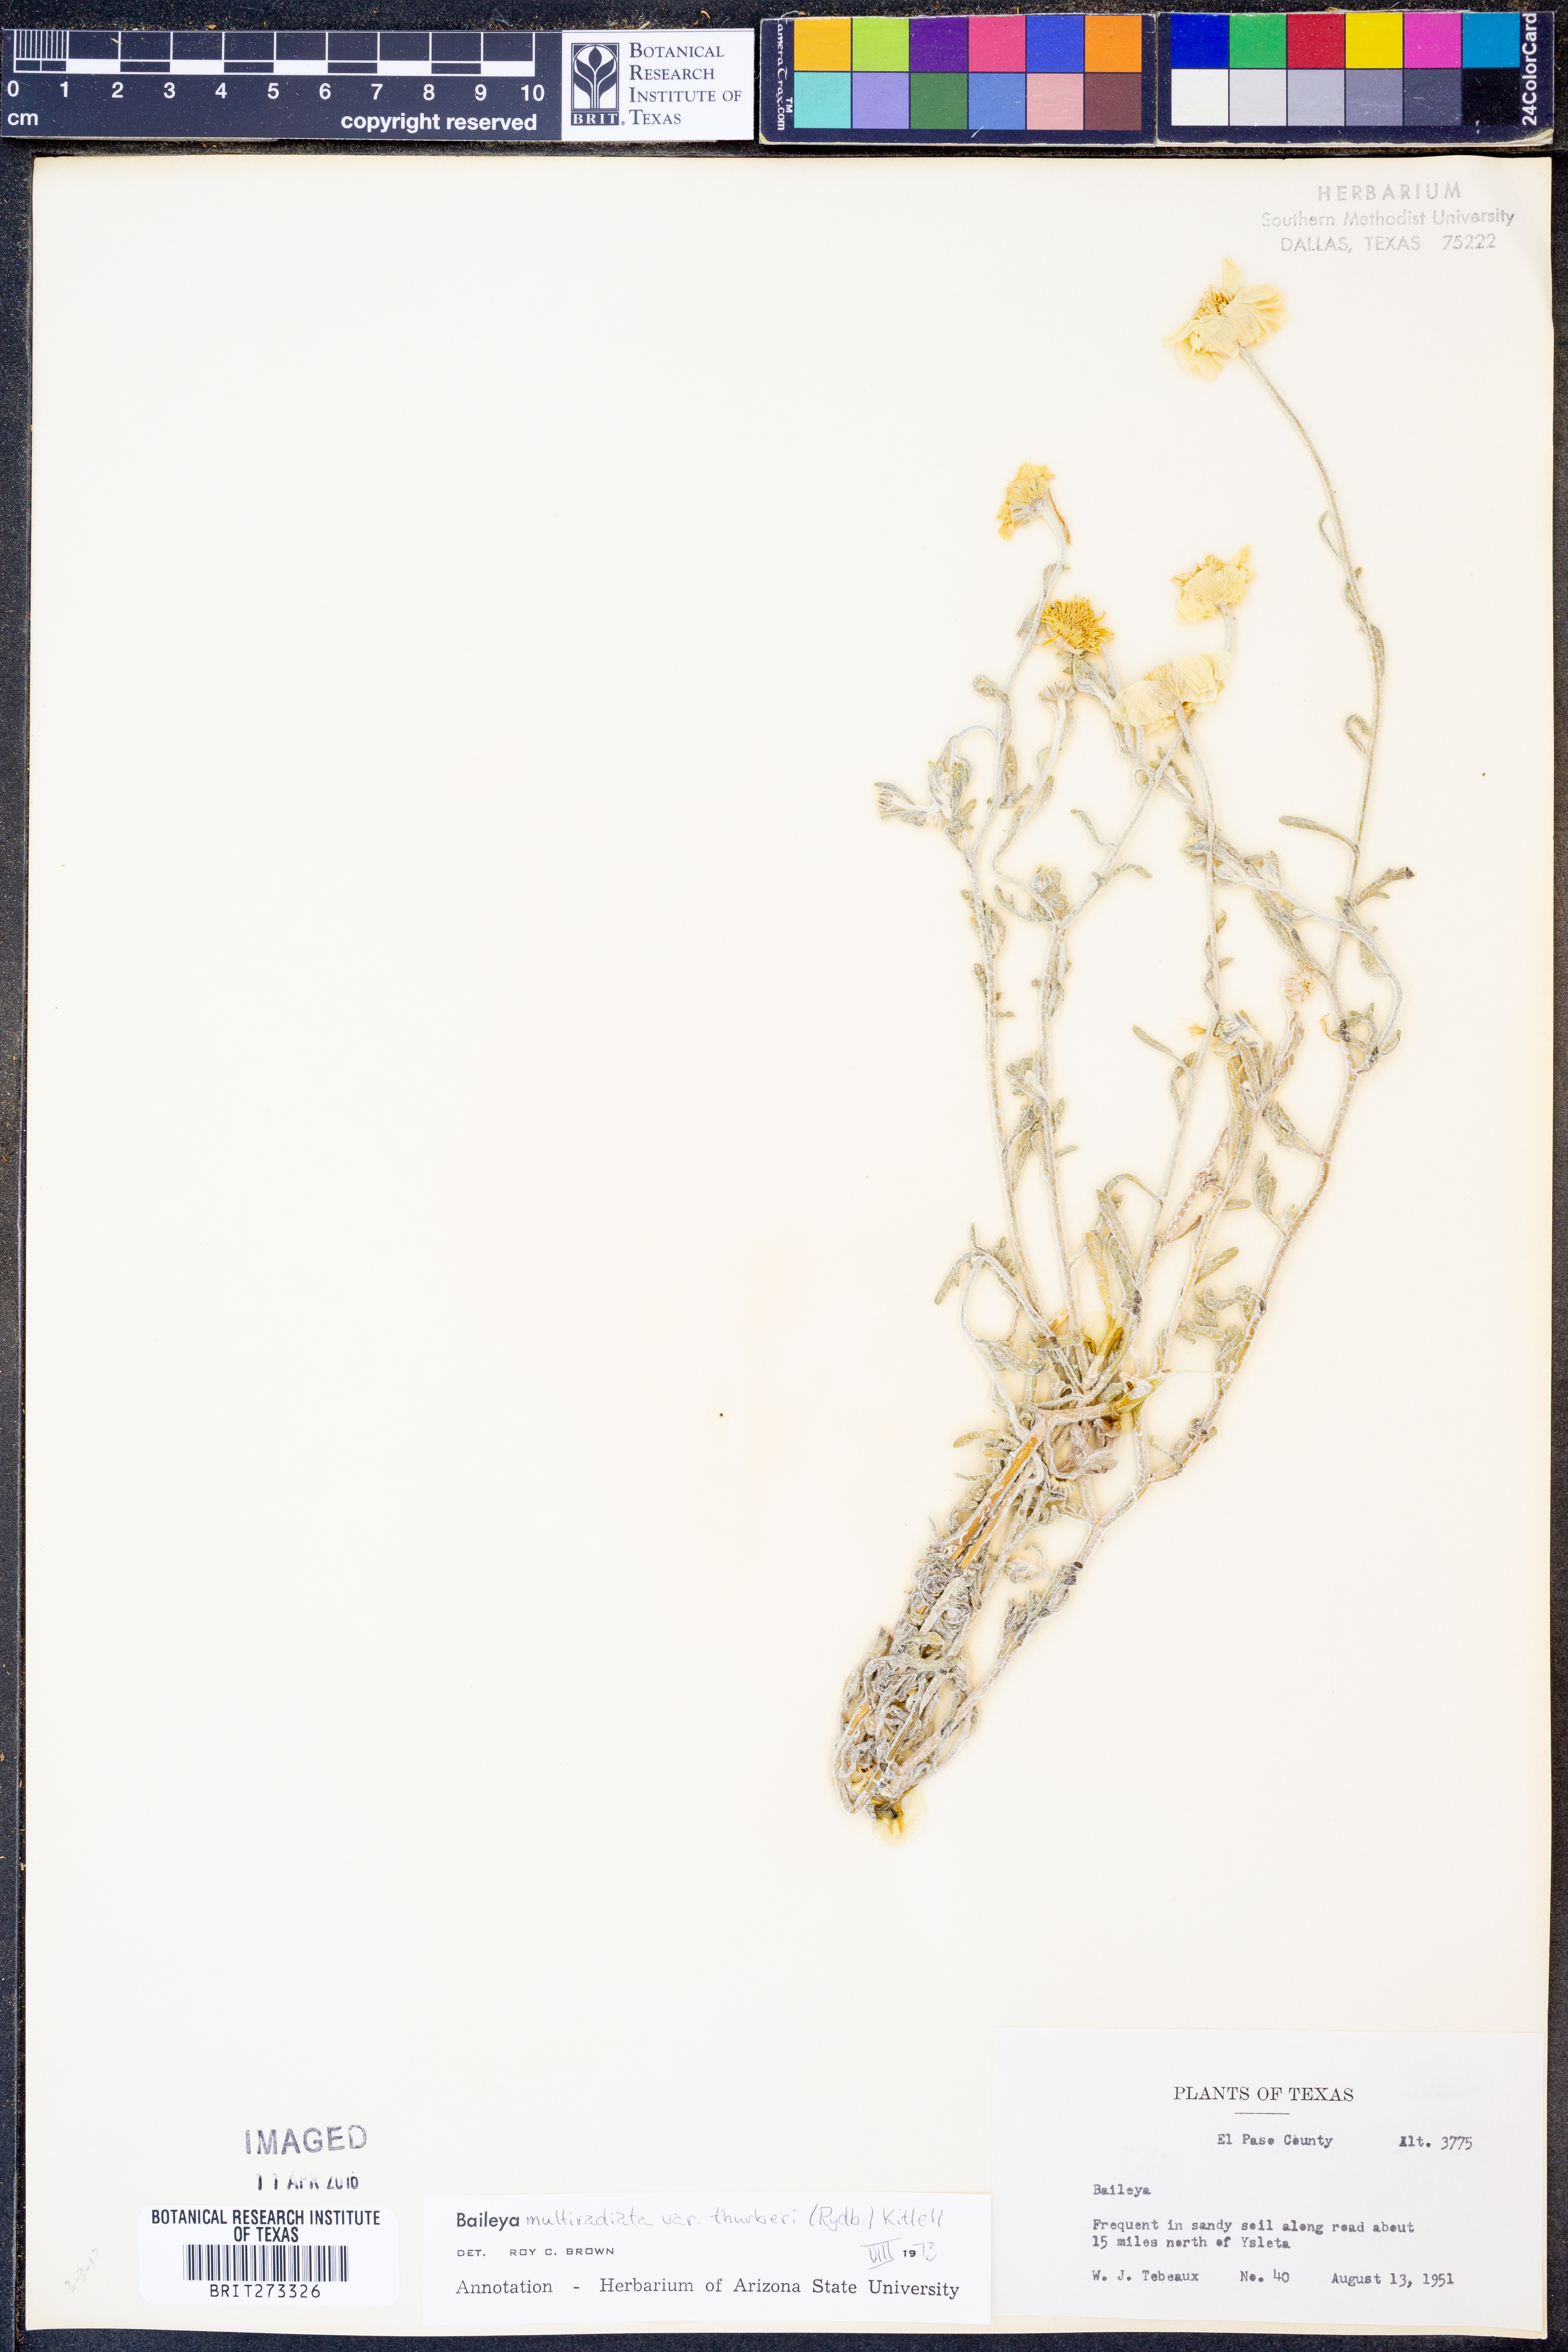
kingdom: Plantae
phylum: Tracheophyta
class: Magnoliopsida
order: Asterales
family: Asteraceae
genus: Baileya
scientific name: Baileya multiradiata
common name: Desert-marigold
